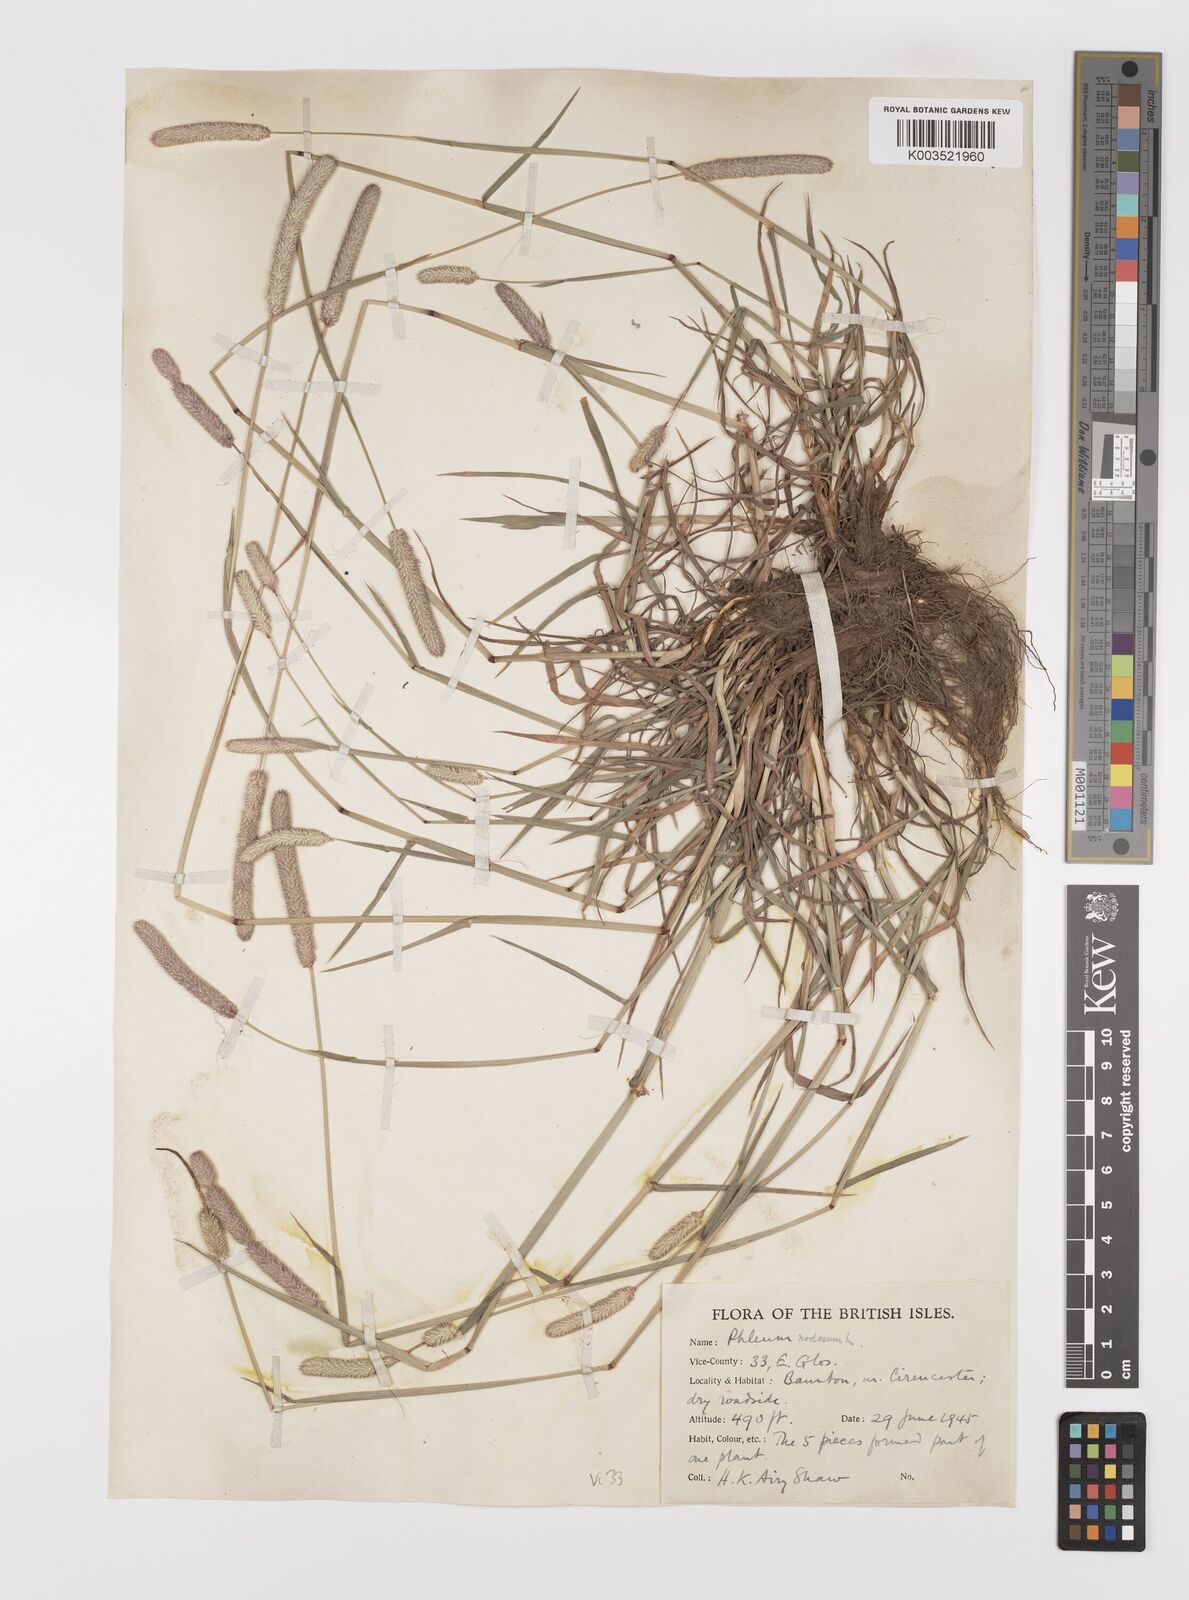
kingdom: Plantae
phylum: Tracheophyta
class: Liliopsida
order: Poales
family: Poaceae
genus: Phleum
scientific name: Phleum bertolonii
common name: Smaller cat's-tail
